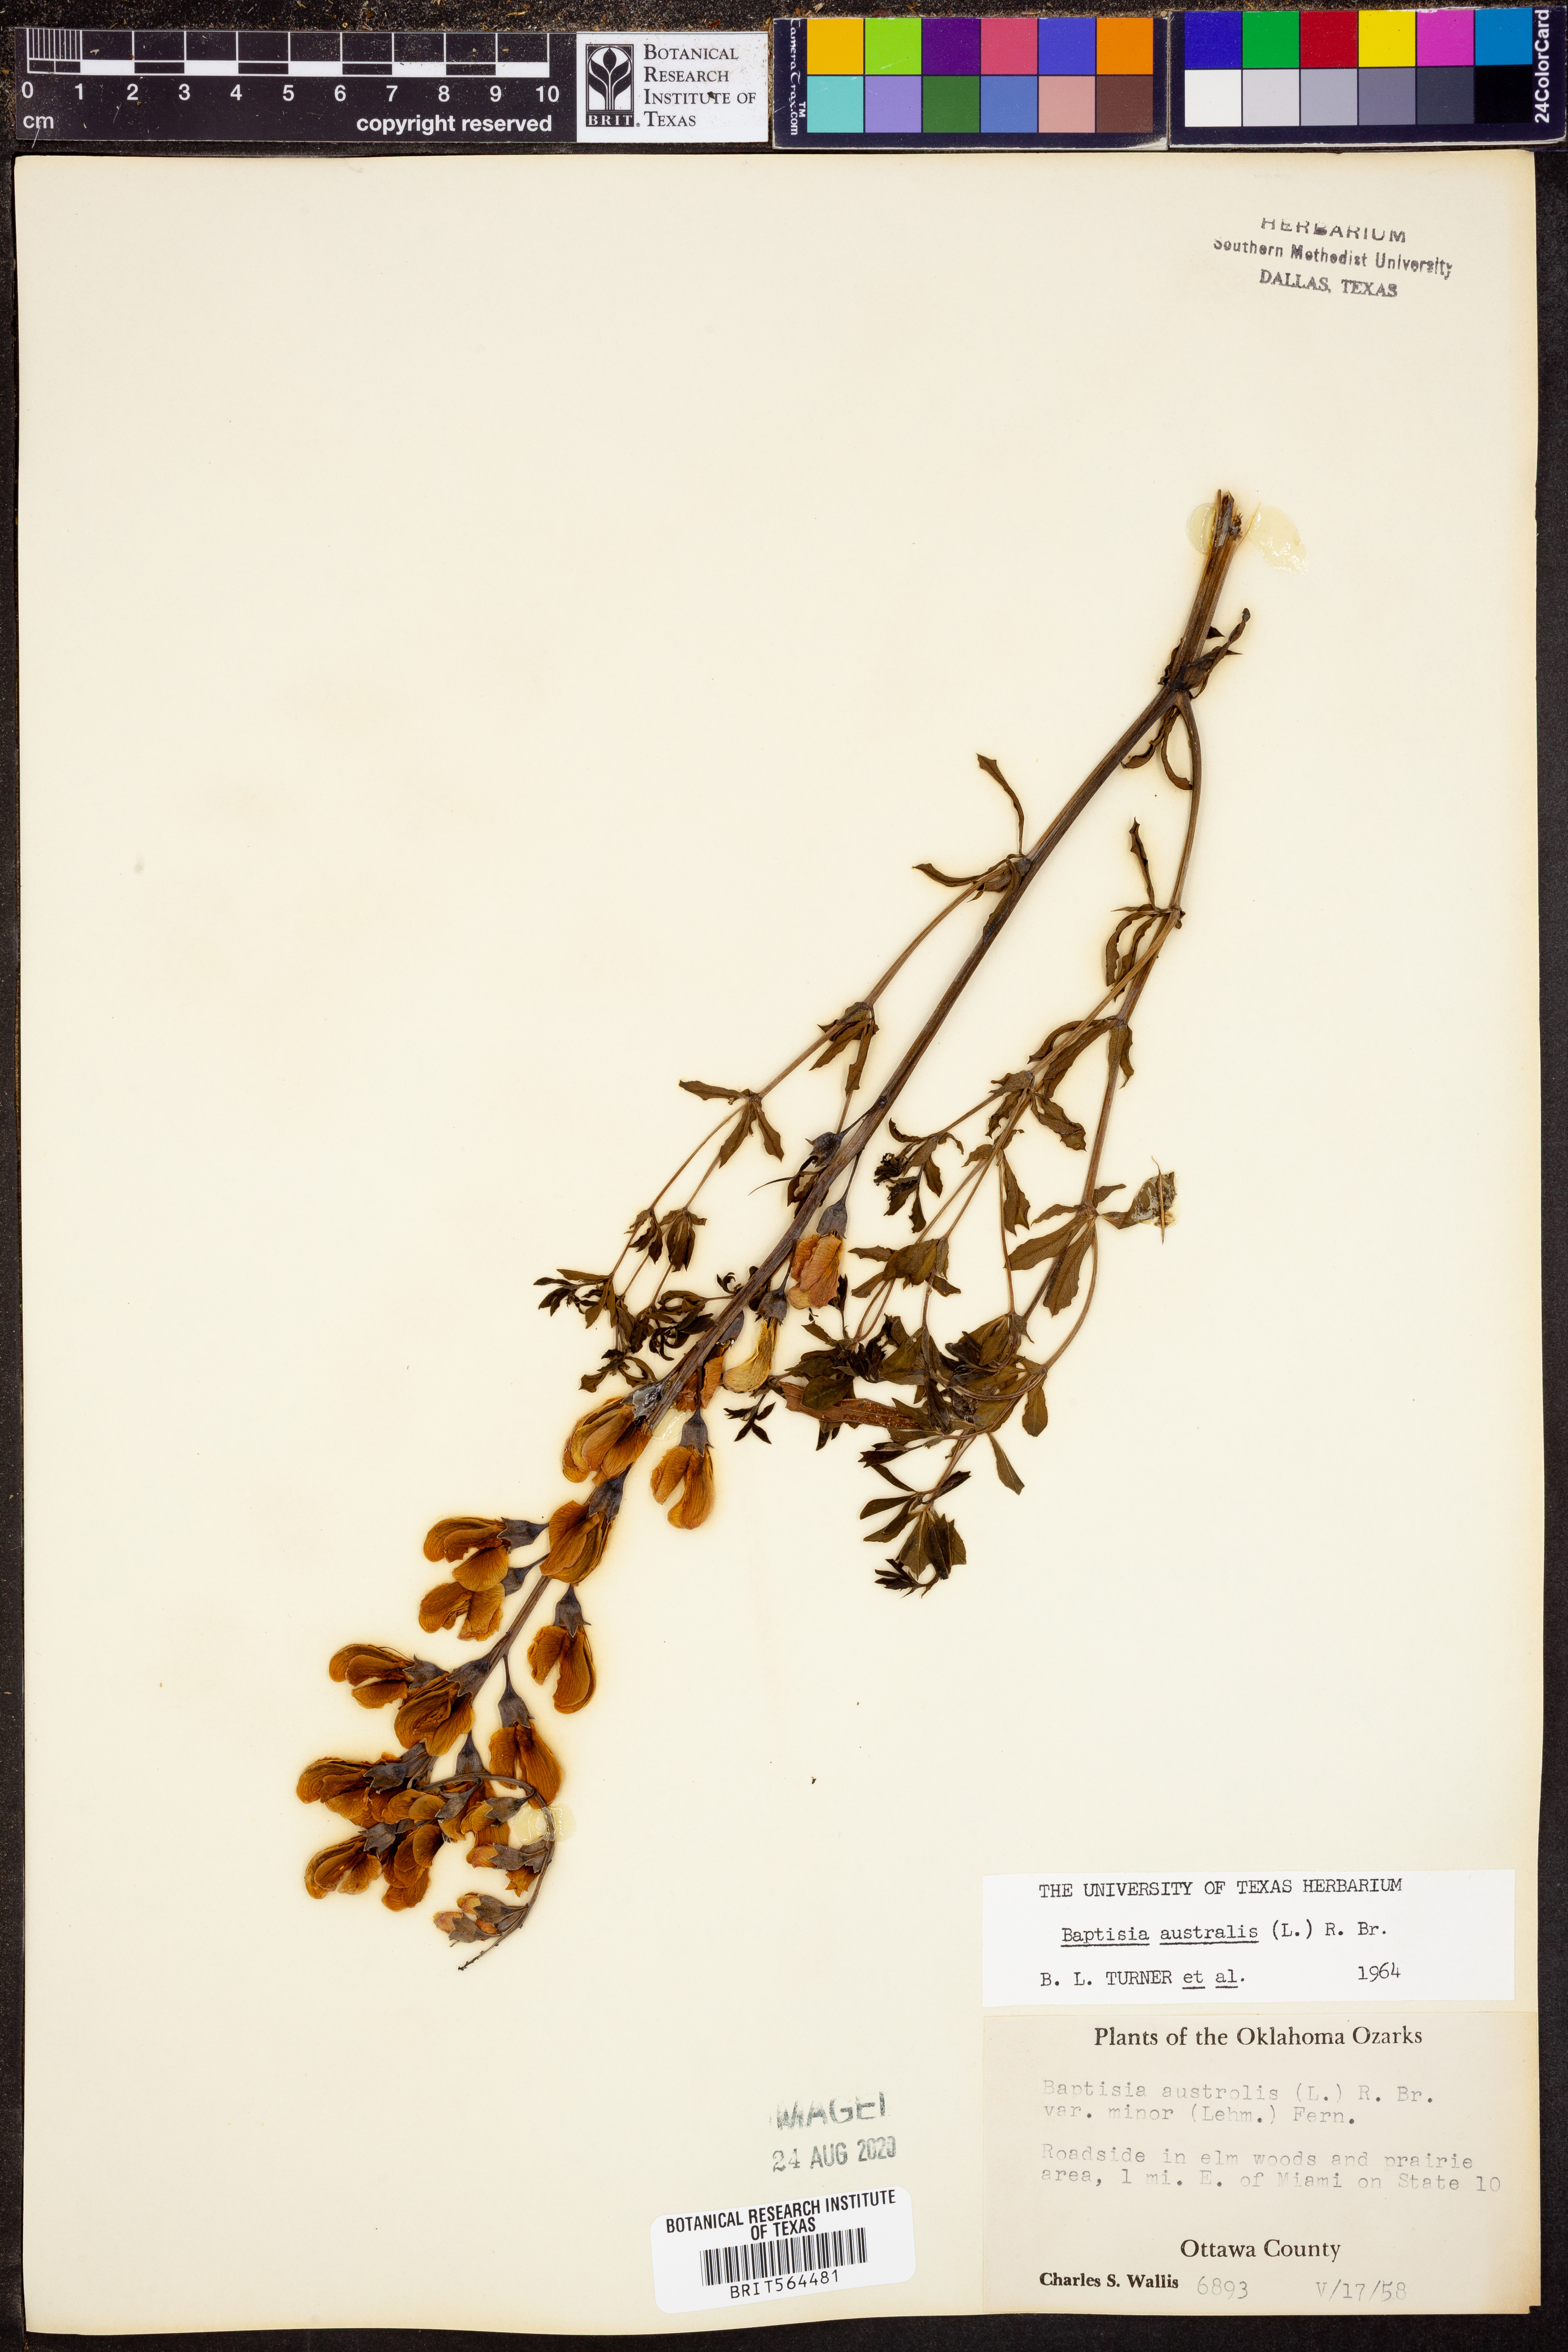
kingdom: Plantae
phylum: Tracheophyta
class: Magnoliopsida
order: Fabales
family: Fabaceae
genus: Baptisia
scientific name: Baptisia australis
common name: Blue false indigo
